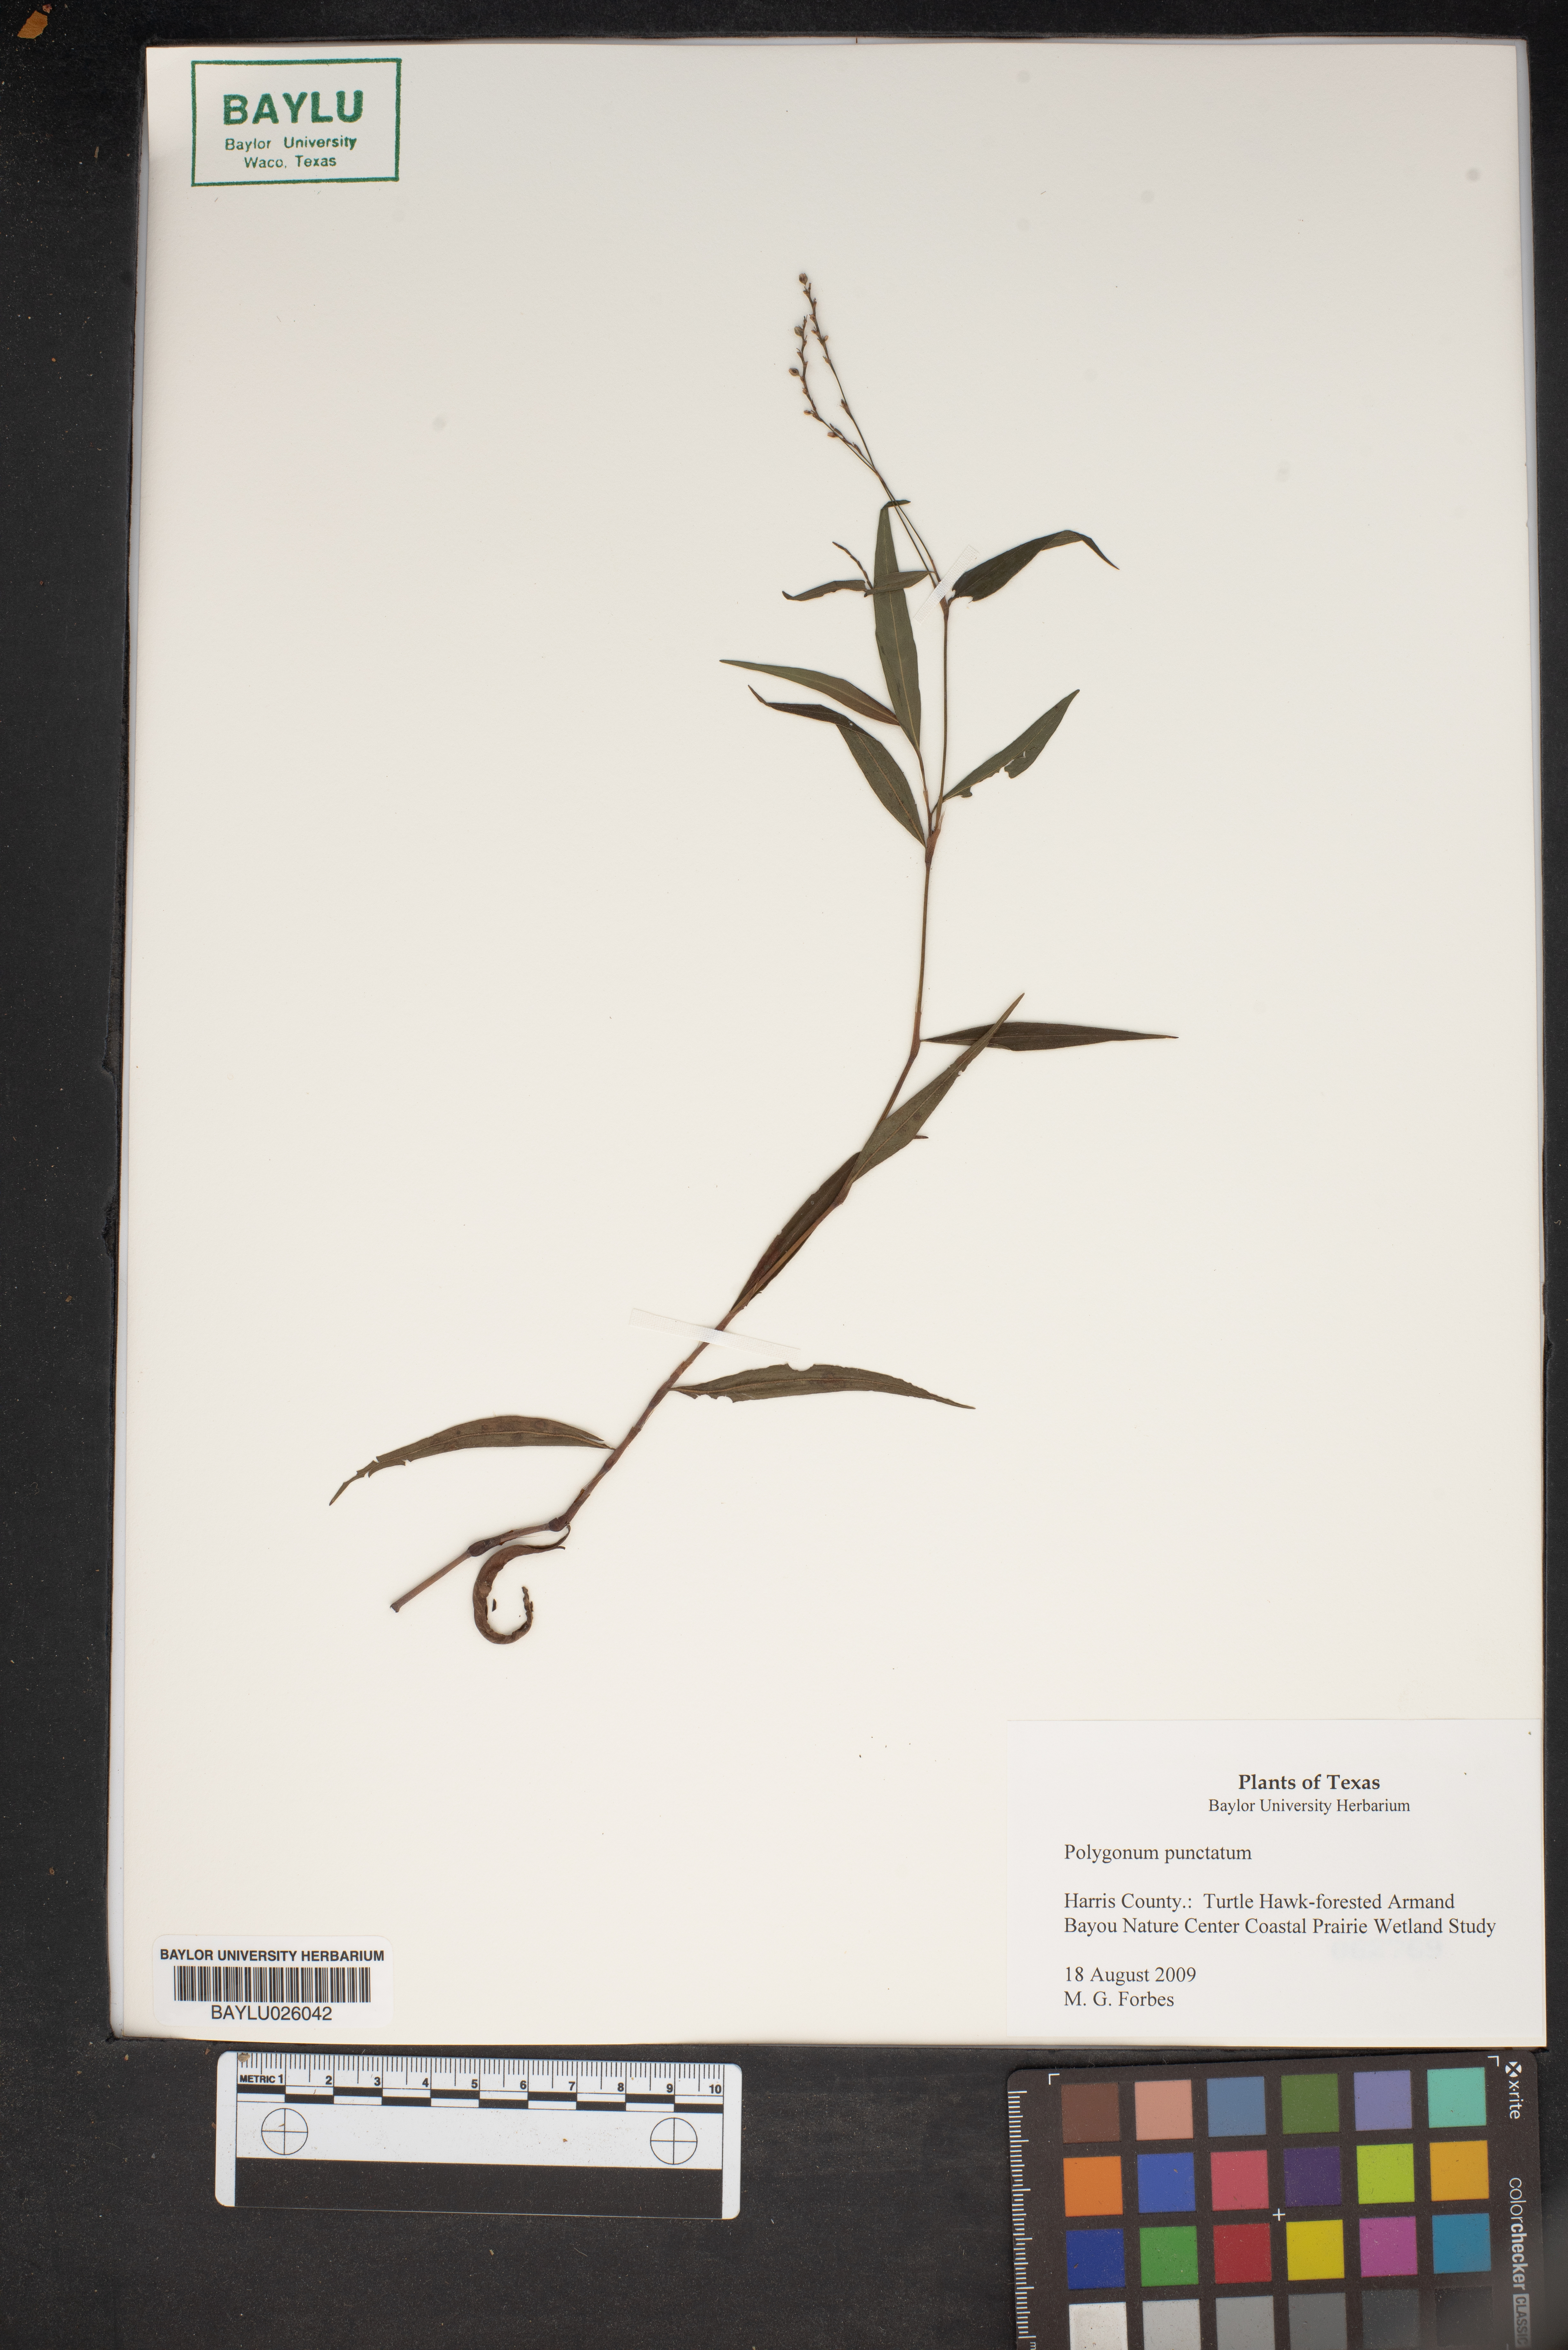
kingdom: Plantae
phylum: Tracheophyta
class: Magnoliopsida
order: Caryophyllales
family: Polygonaceae
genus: Persicaria
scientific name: Persicaria punctata
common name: Dotted smartweed
